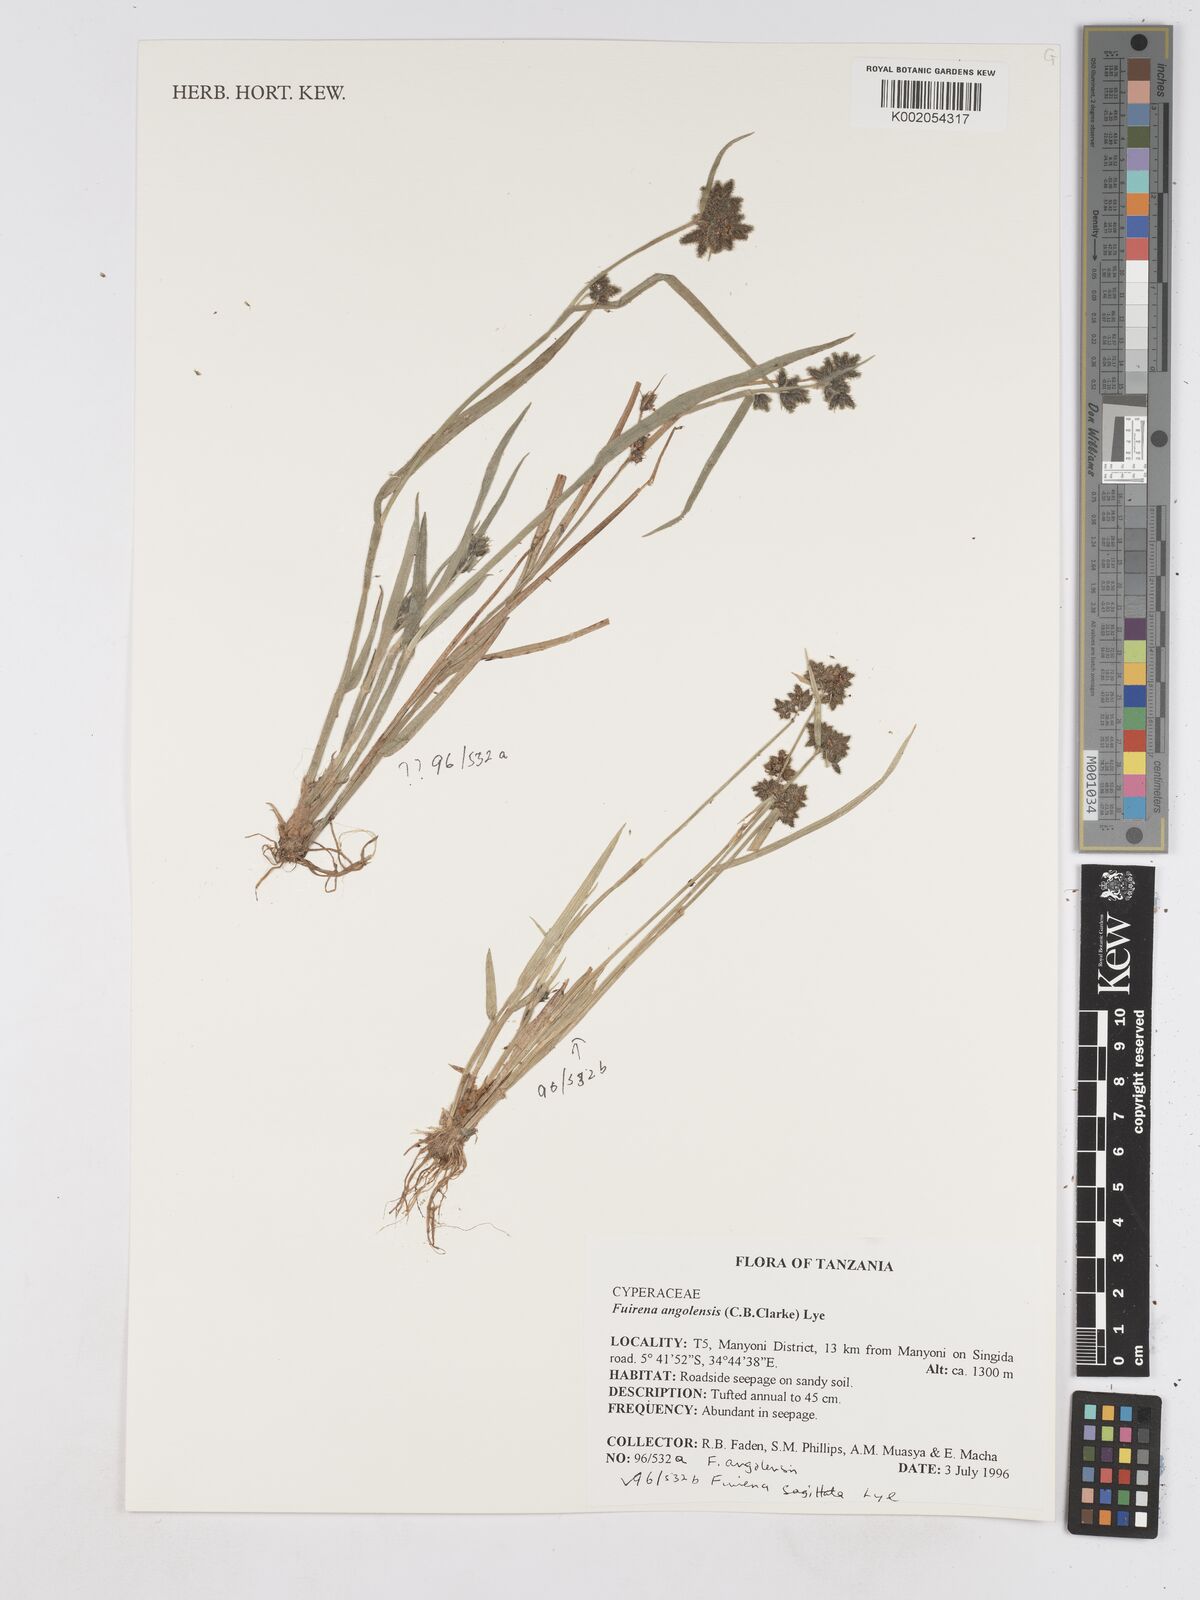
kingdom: Plantae
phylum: Tracheophyta
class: Liliopsida
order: Poales
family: Cyperaceae
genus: Fuirena
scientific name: Fuirena angolensis
